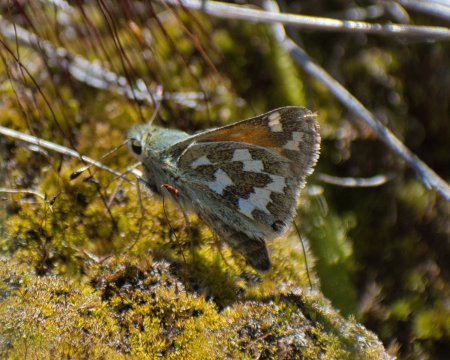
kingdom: Animalia
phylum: Arthropoda
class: Insecta
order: Lepidoptera
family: Hesperiidae
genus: Hesperia
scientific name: Hesperia juba
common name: Juba Skipper
